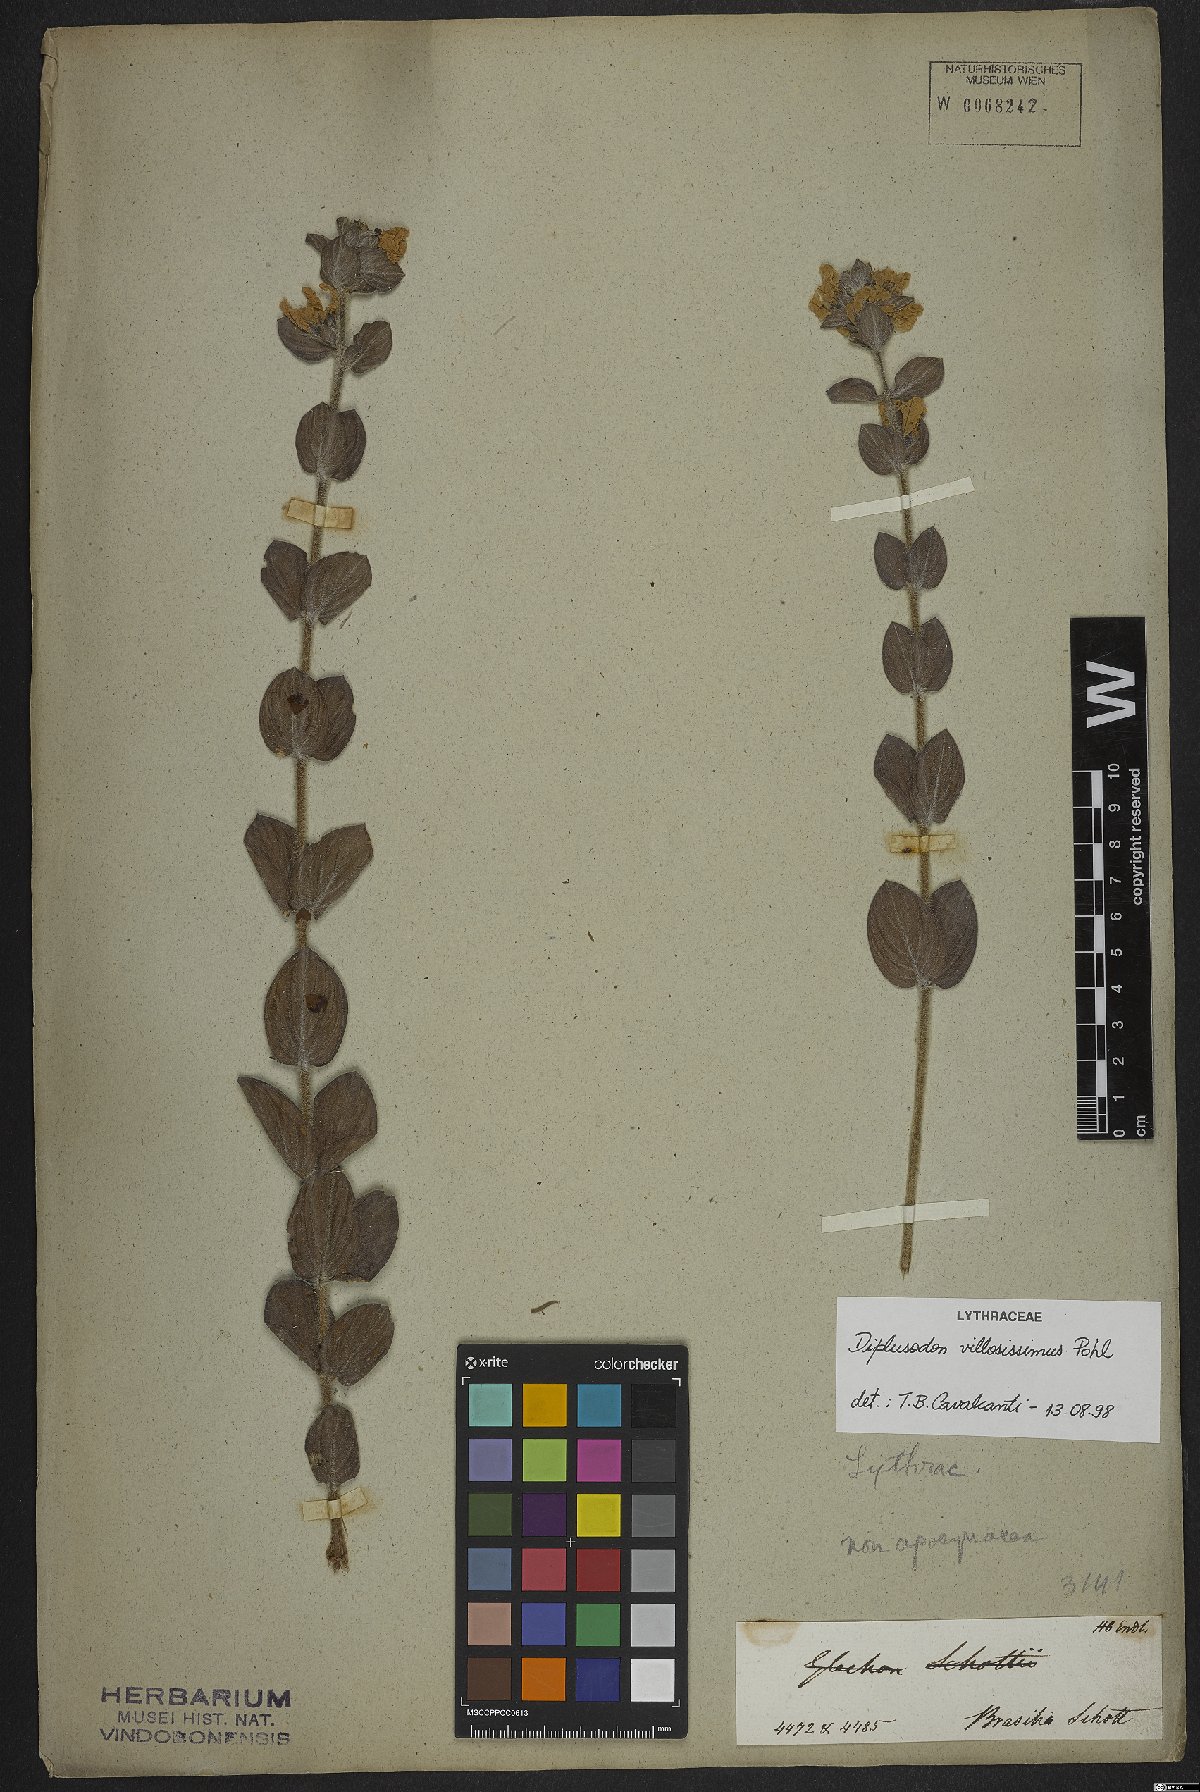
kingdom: Plantae
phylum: Tracheophyta
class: Magnoliopsida
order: Myrtales
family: Lythraceae
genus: Diplusodon
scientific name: Diplusodon villosissimus
